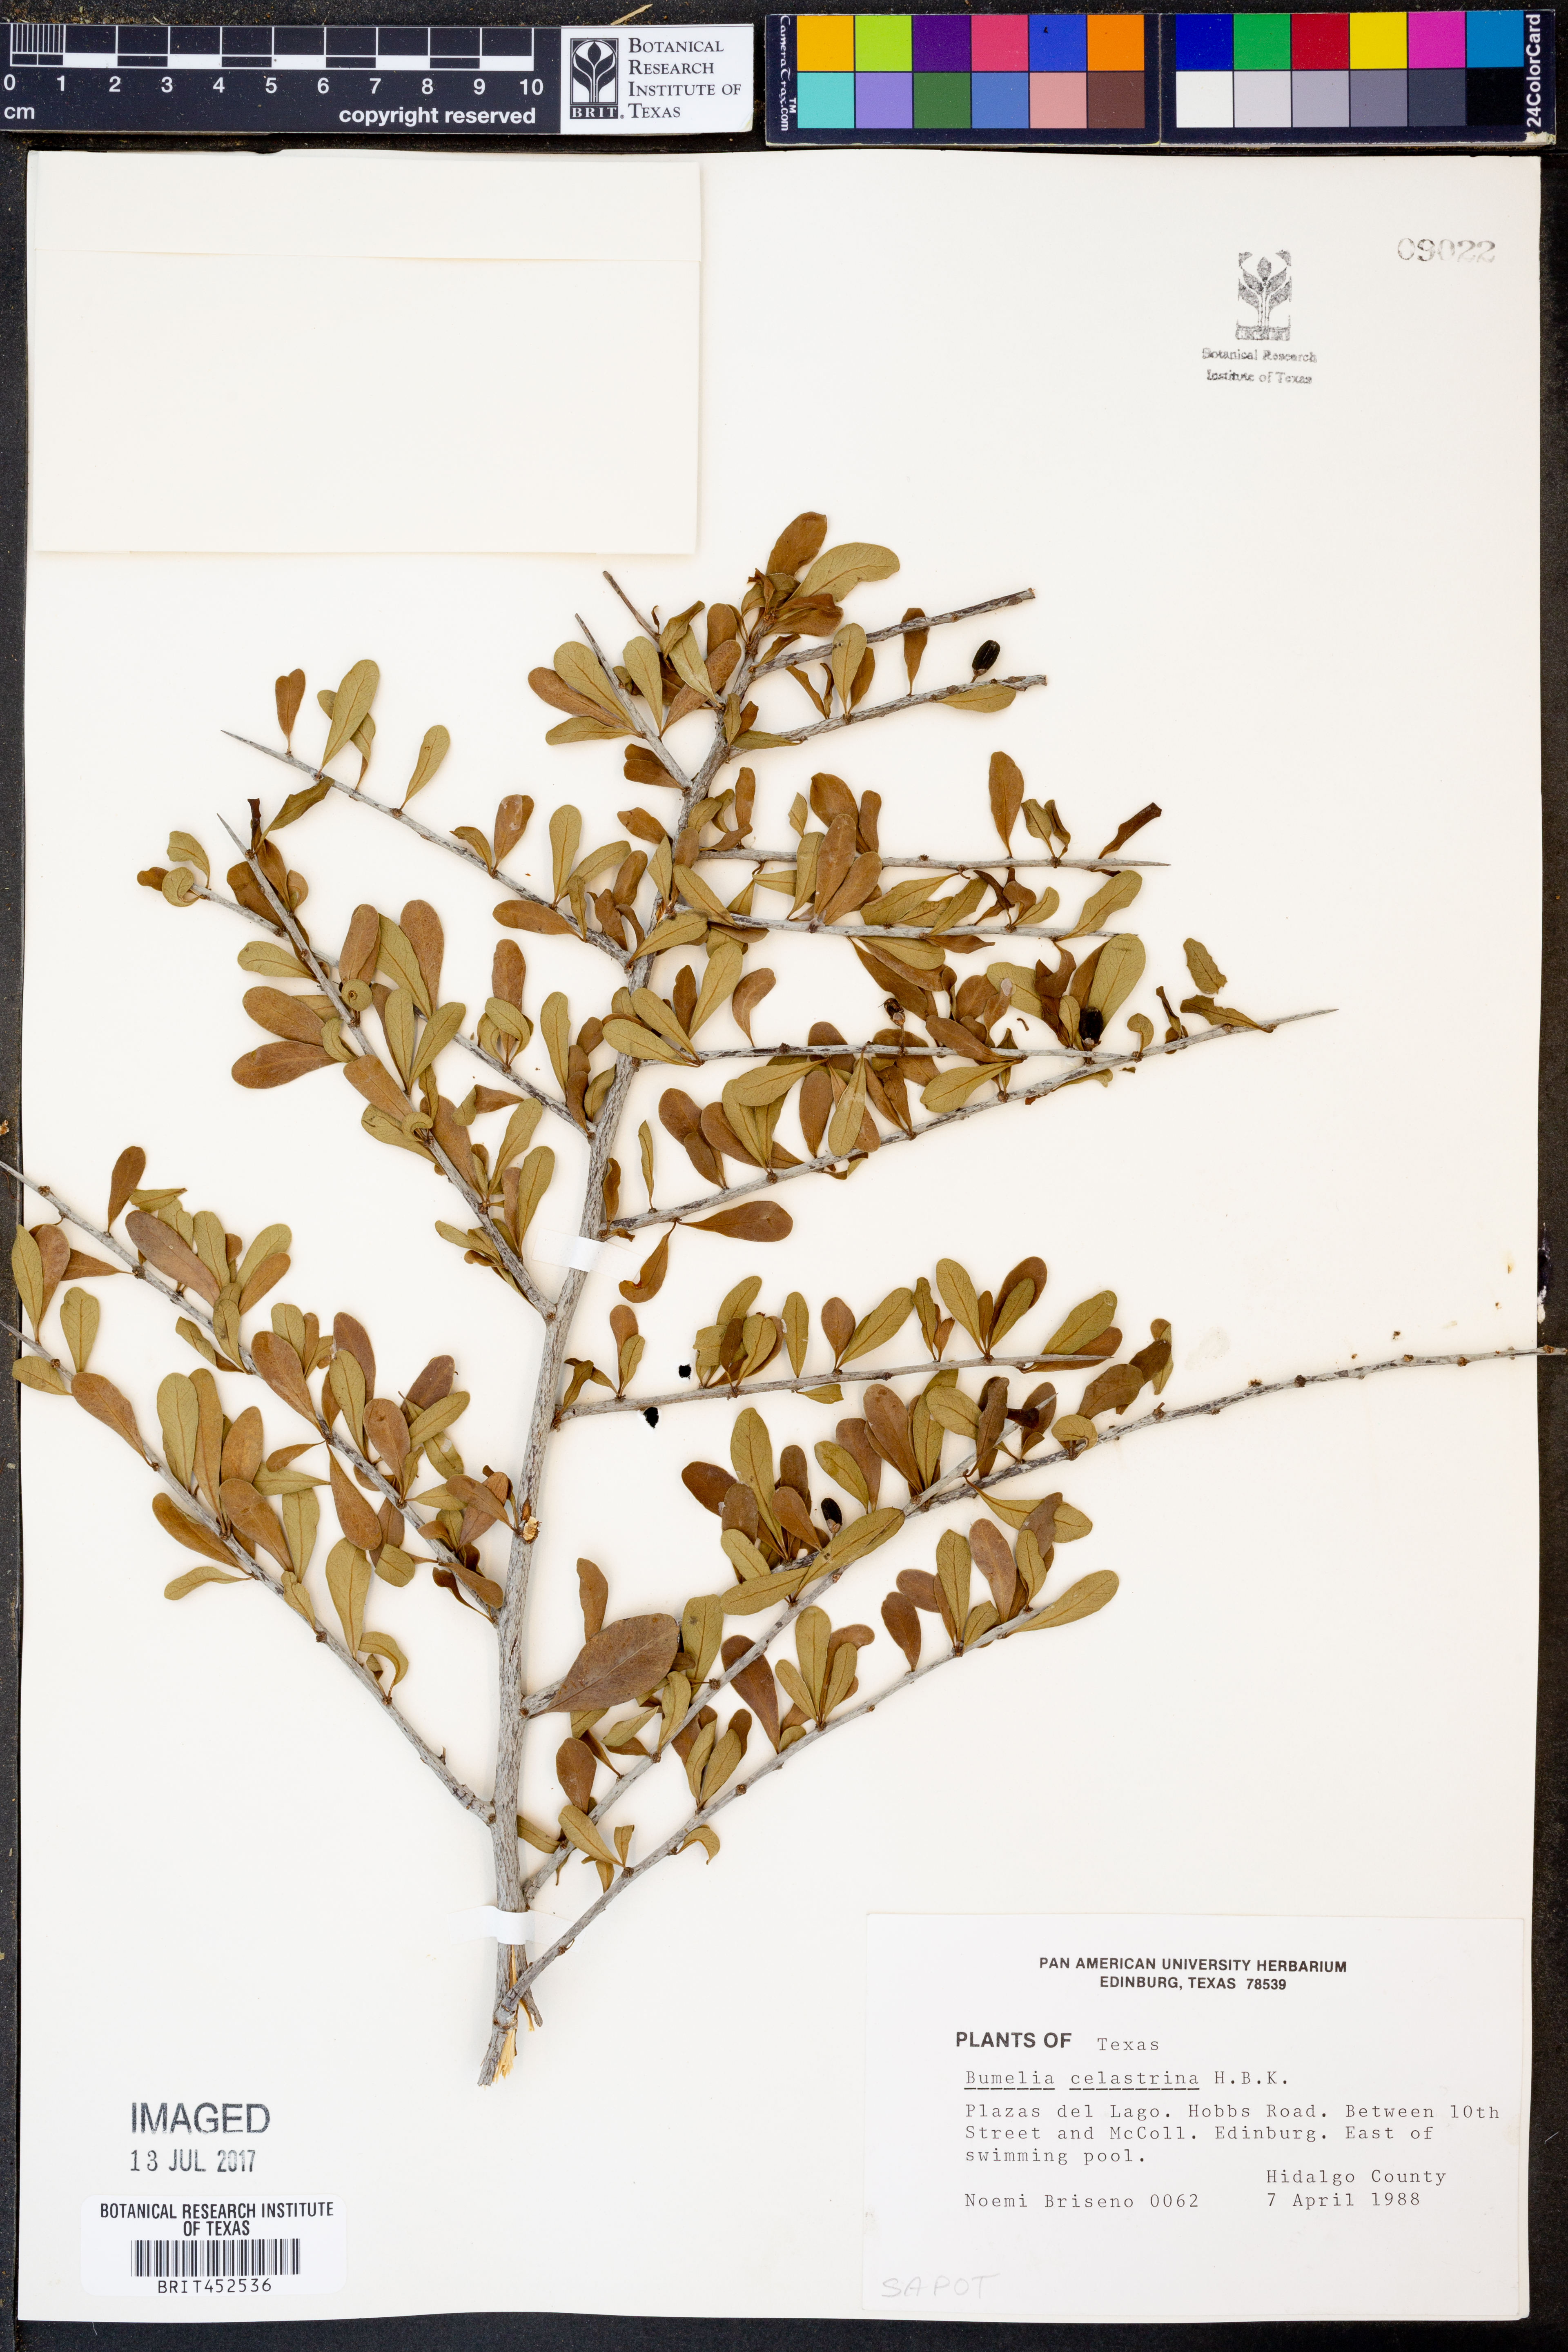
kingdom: Plantae
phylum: Tracheophyta
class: Magnoliopsida
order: Ericales
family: Sapotaceae
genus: Sideroxylon
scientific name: Sideroxylon celastrinum
